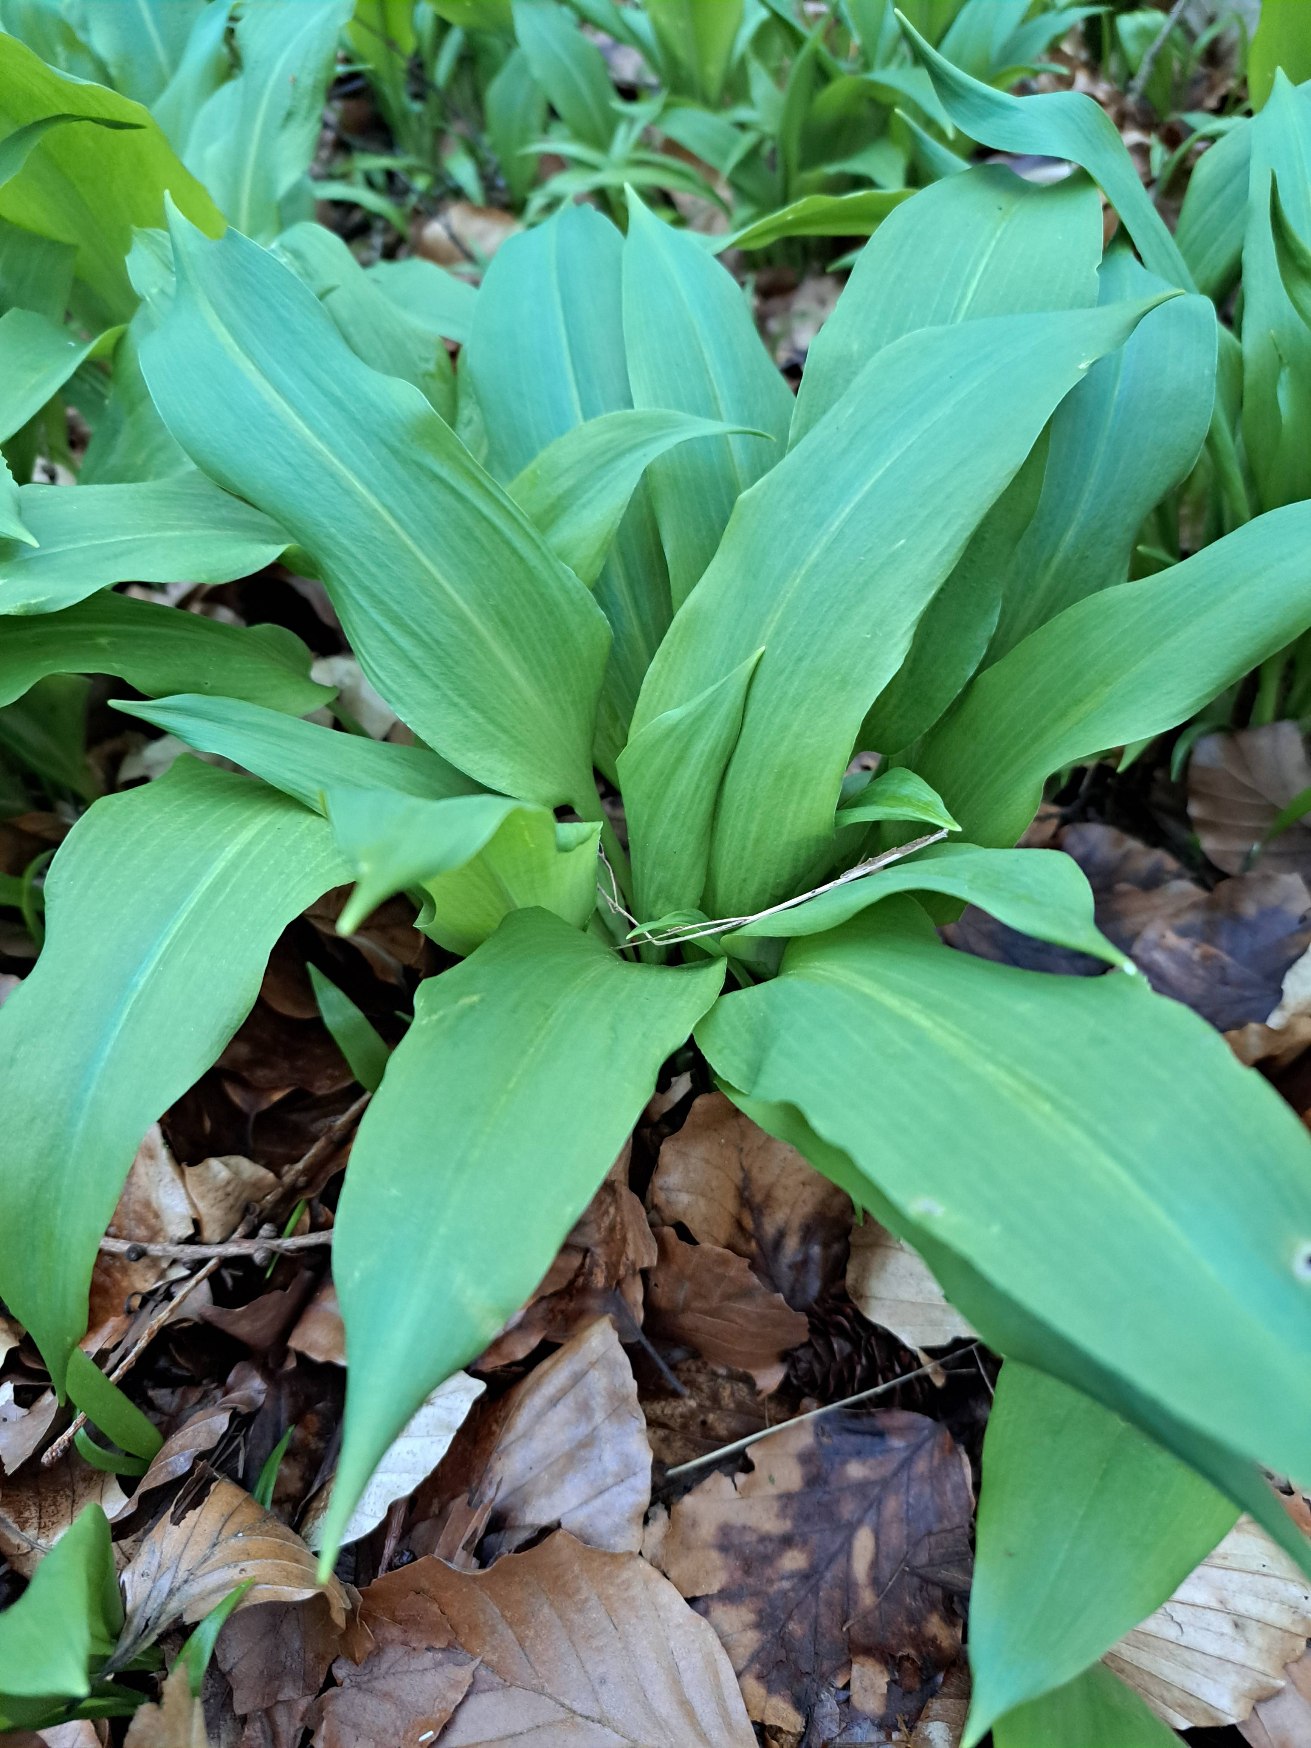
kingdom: Plantae
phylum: Tracheophyta
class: Liliopsida
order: Asparagales
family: Amaryllidaceae
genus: Allium
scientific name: Allium ursinum
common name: Rams-løg
